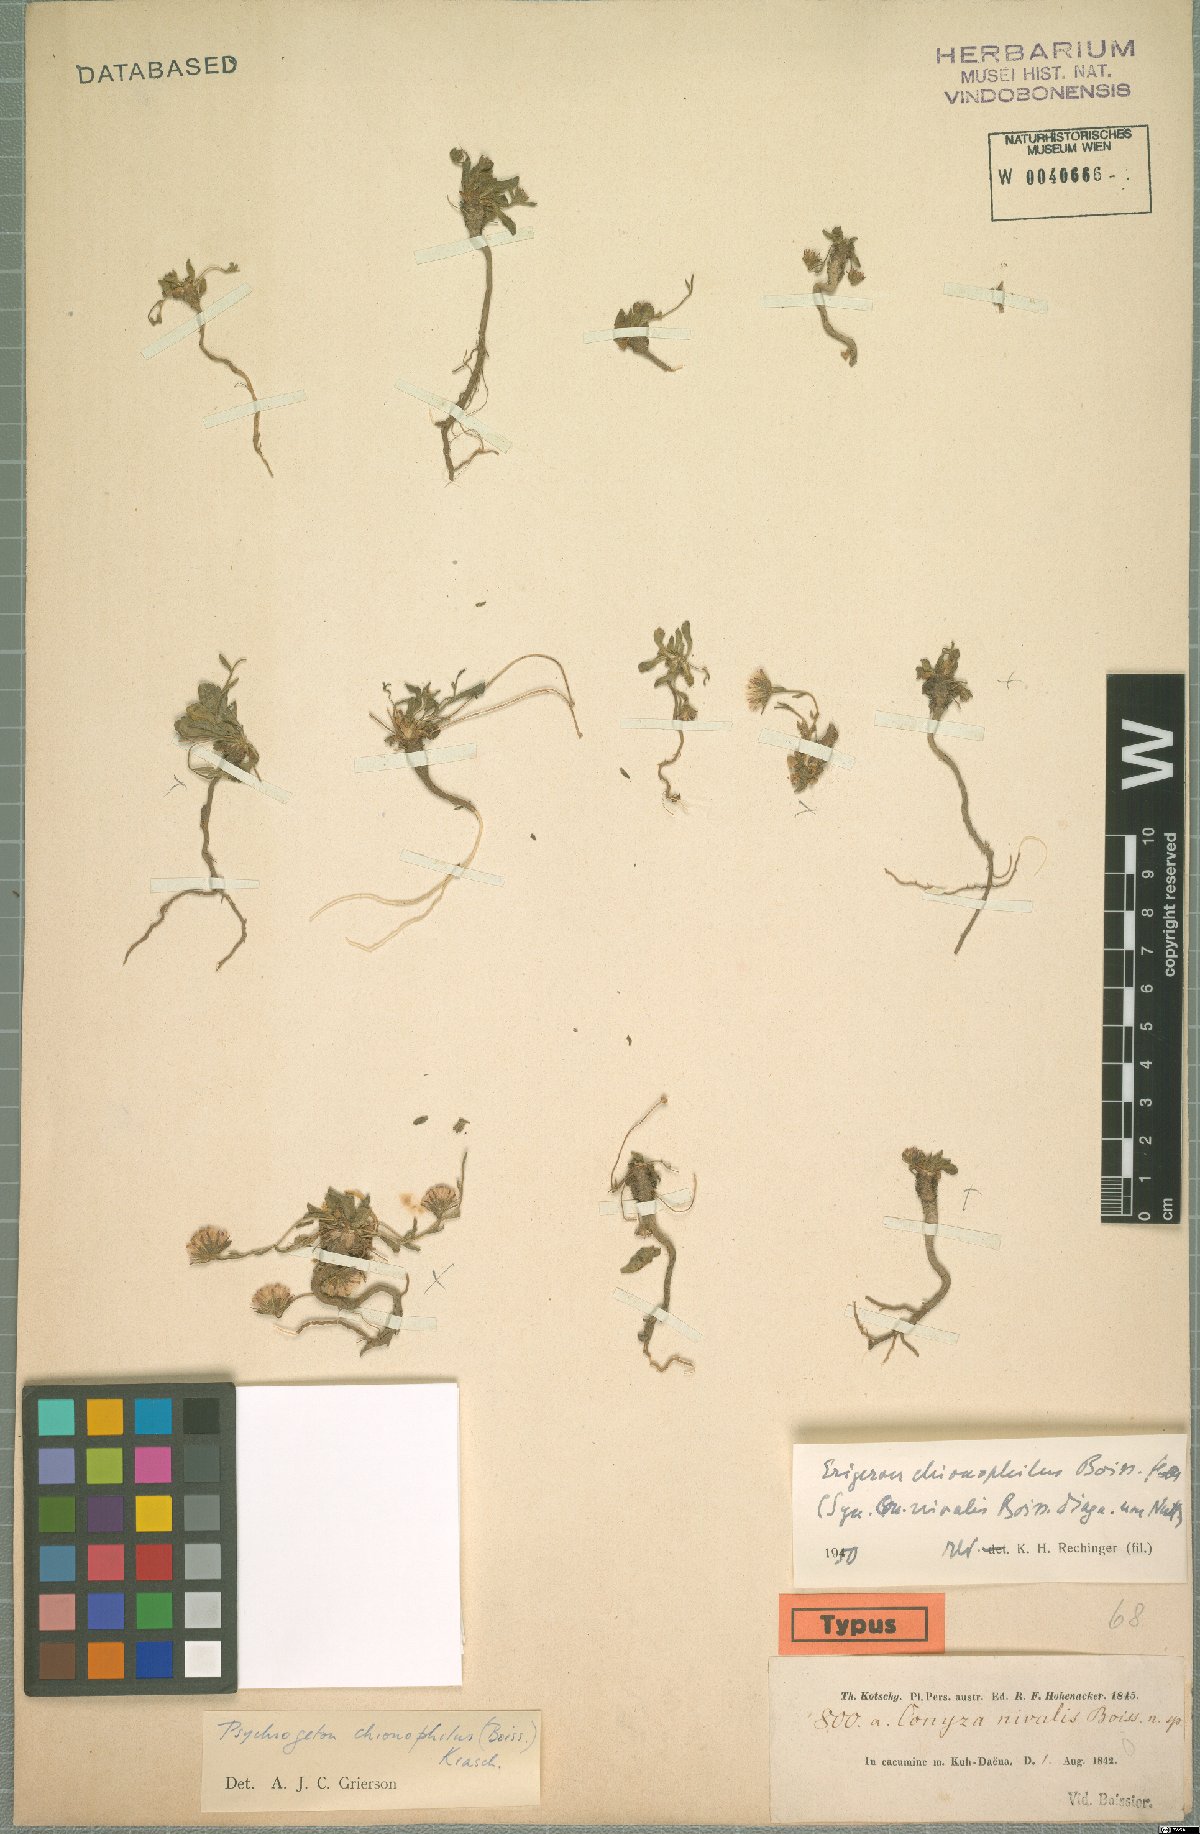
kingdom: Plantae
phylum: Tracheophyta
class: Magnoliopsida
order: Asterales
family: Asteraceae
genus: Psychrogeton
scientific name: Psychrogeton chionophilus
